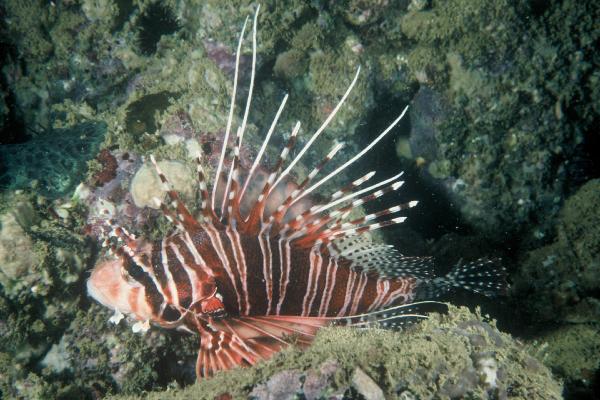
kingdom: Animalia
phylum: Chordata
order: Scorpaeniformes
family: Scorpaenidae
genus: Pterois
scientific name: Pterois antennata
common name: Spotfin lionfish
